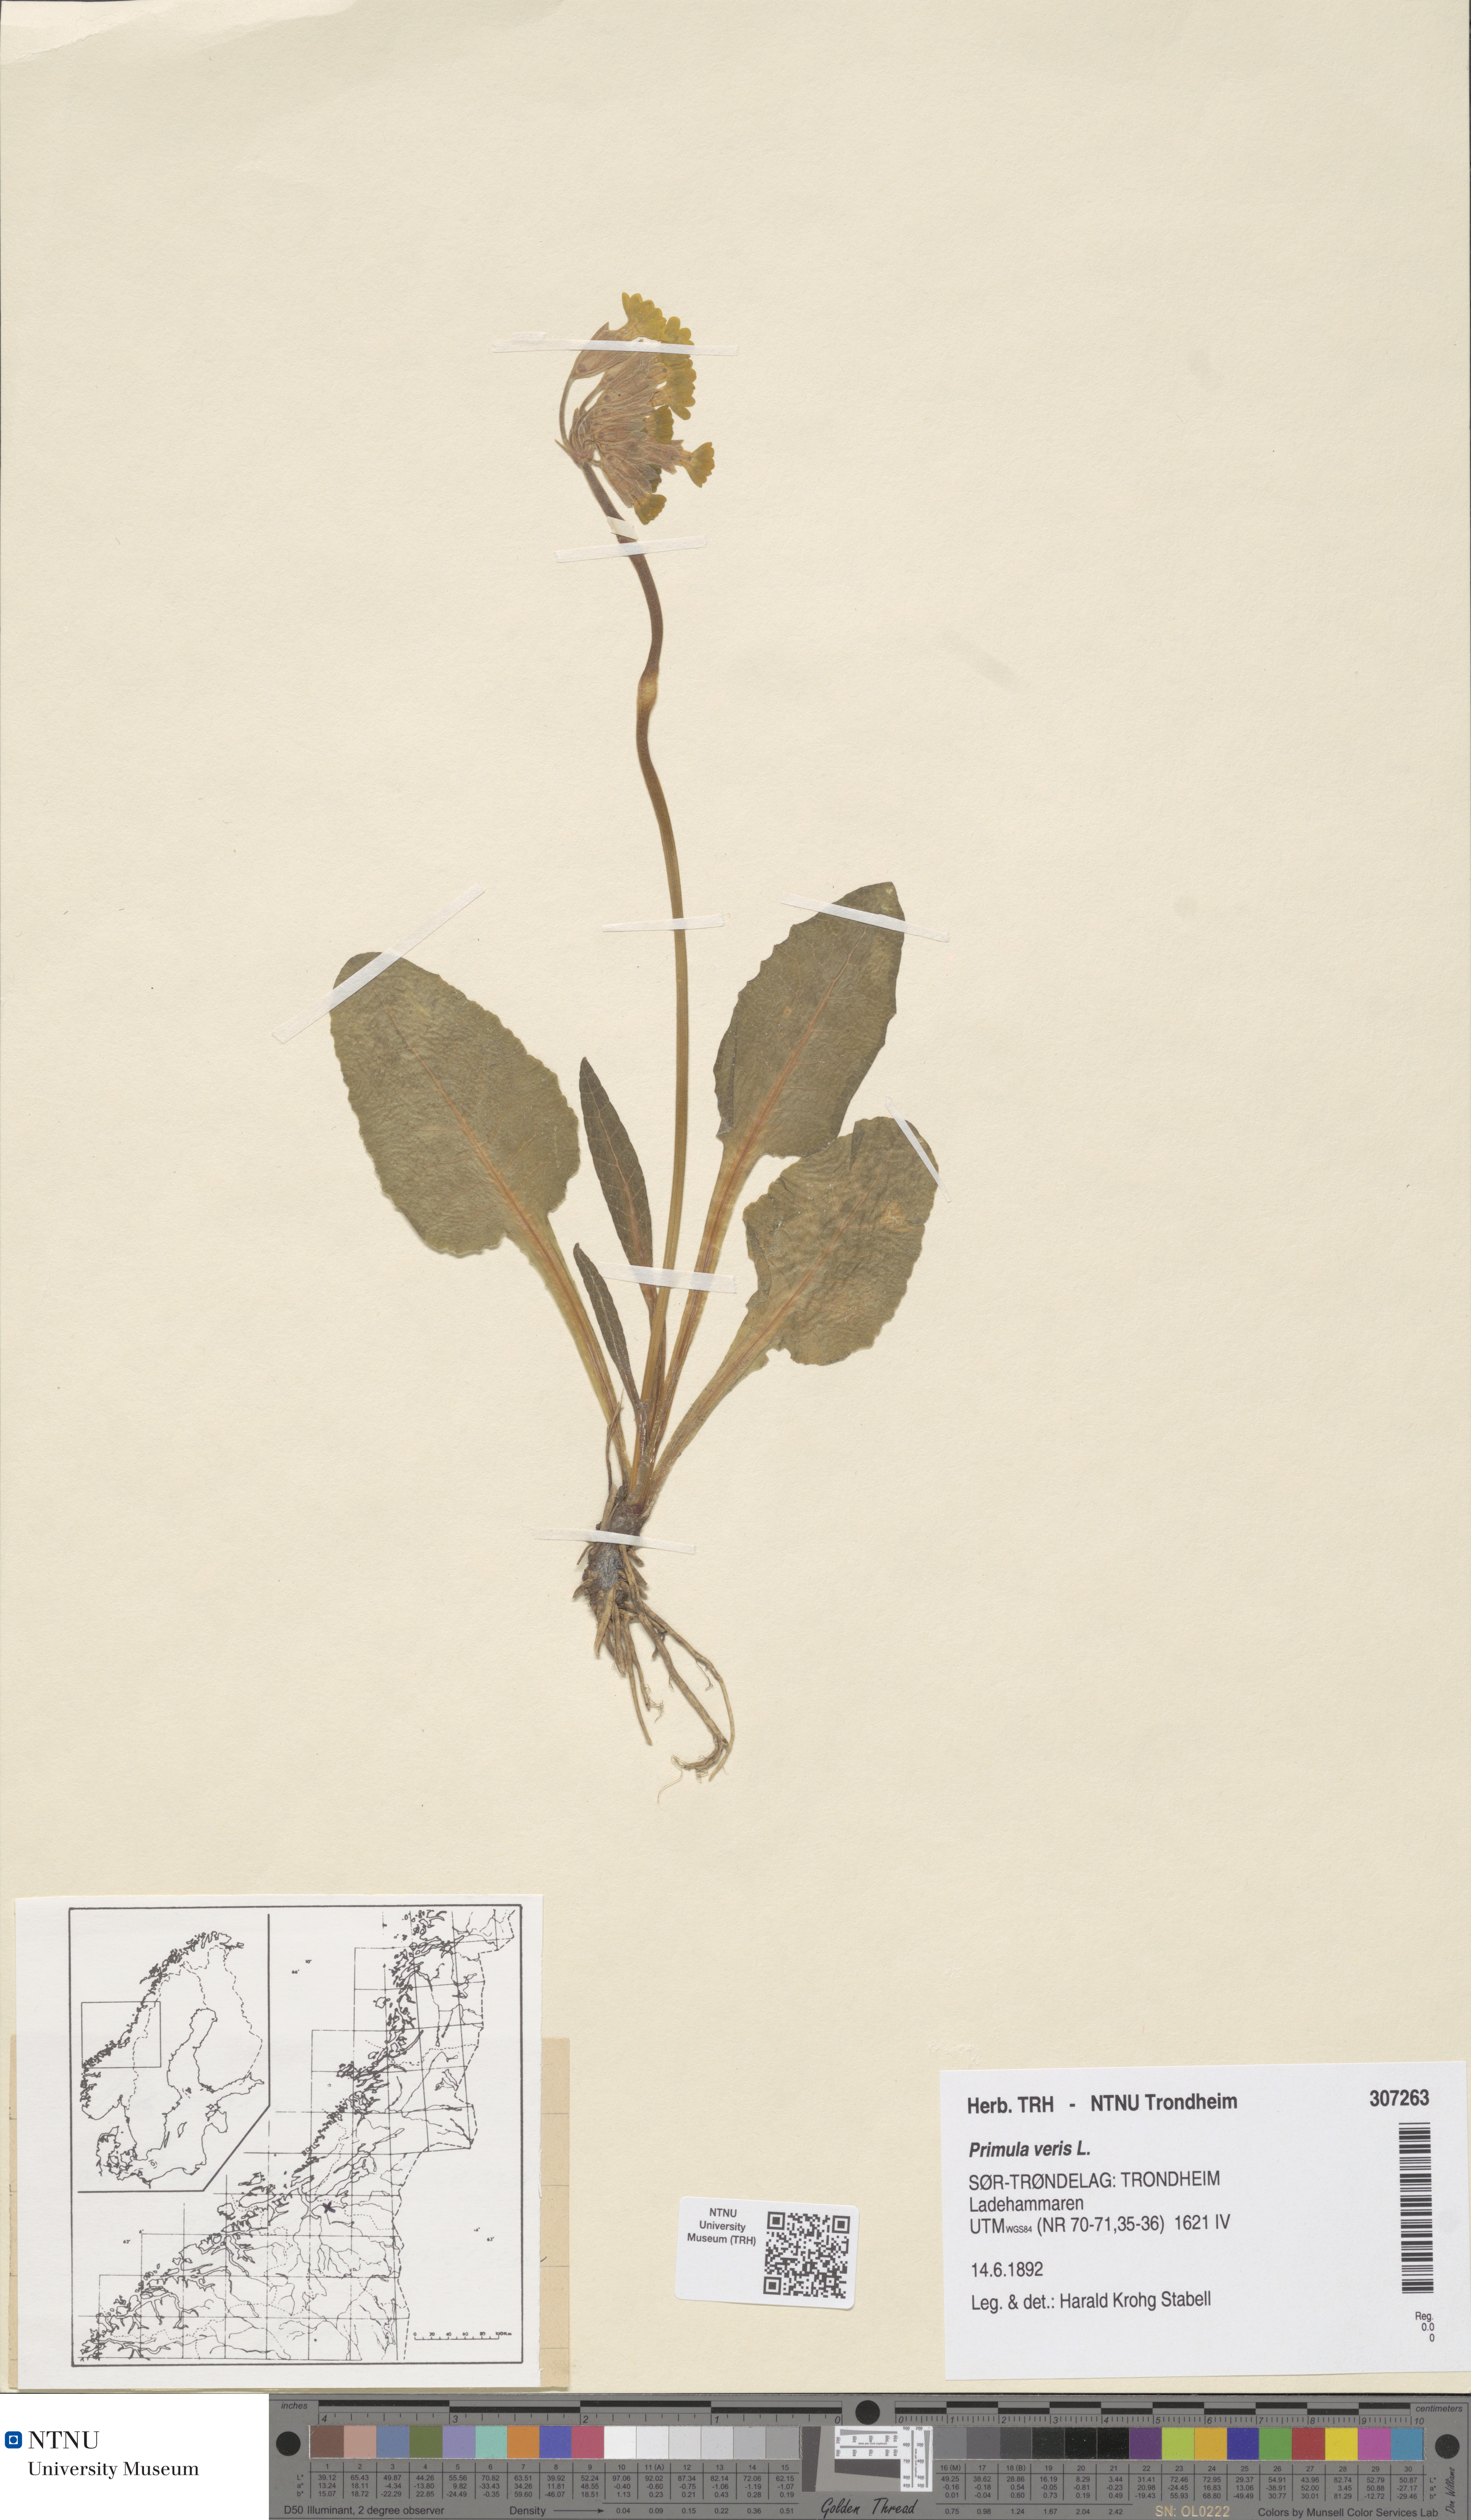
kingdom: Plantae
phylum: Tracheophyta
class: Magnoliopsida
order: Ericales
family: Primulaceae
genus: Primula
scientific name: Primula veris
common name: Cowslip
